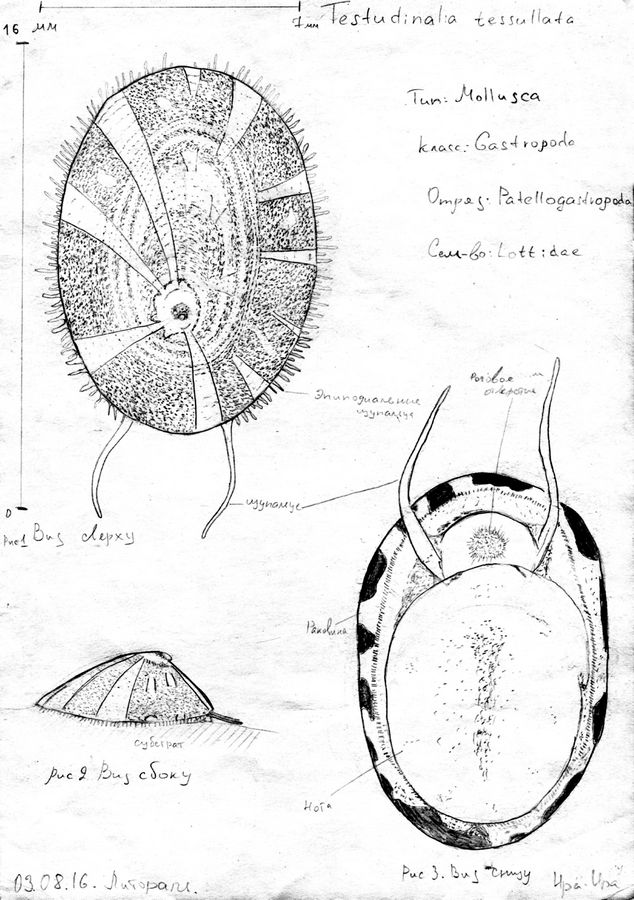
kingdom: Animalia
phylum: Mollusca
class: Gastropoda
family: Lottiidae
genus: Testudinalia
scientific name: Testudinalia testudinalis
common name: Common tortoiseshell limpet
